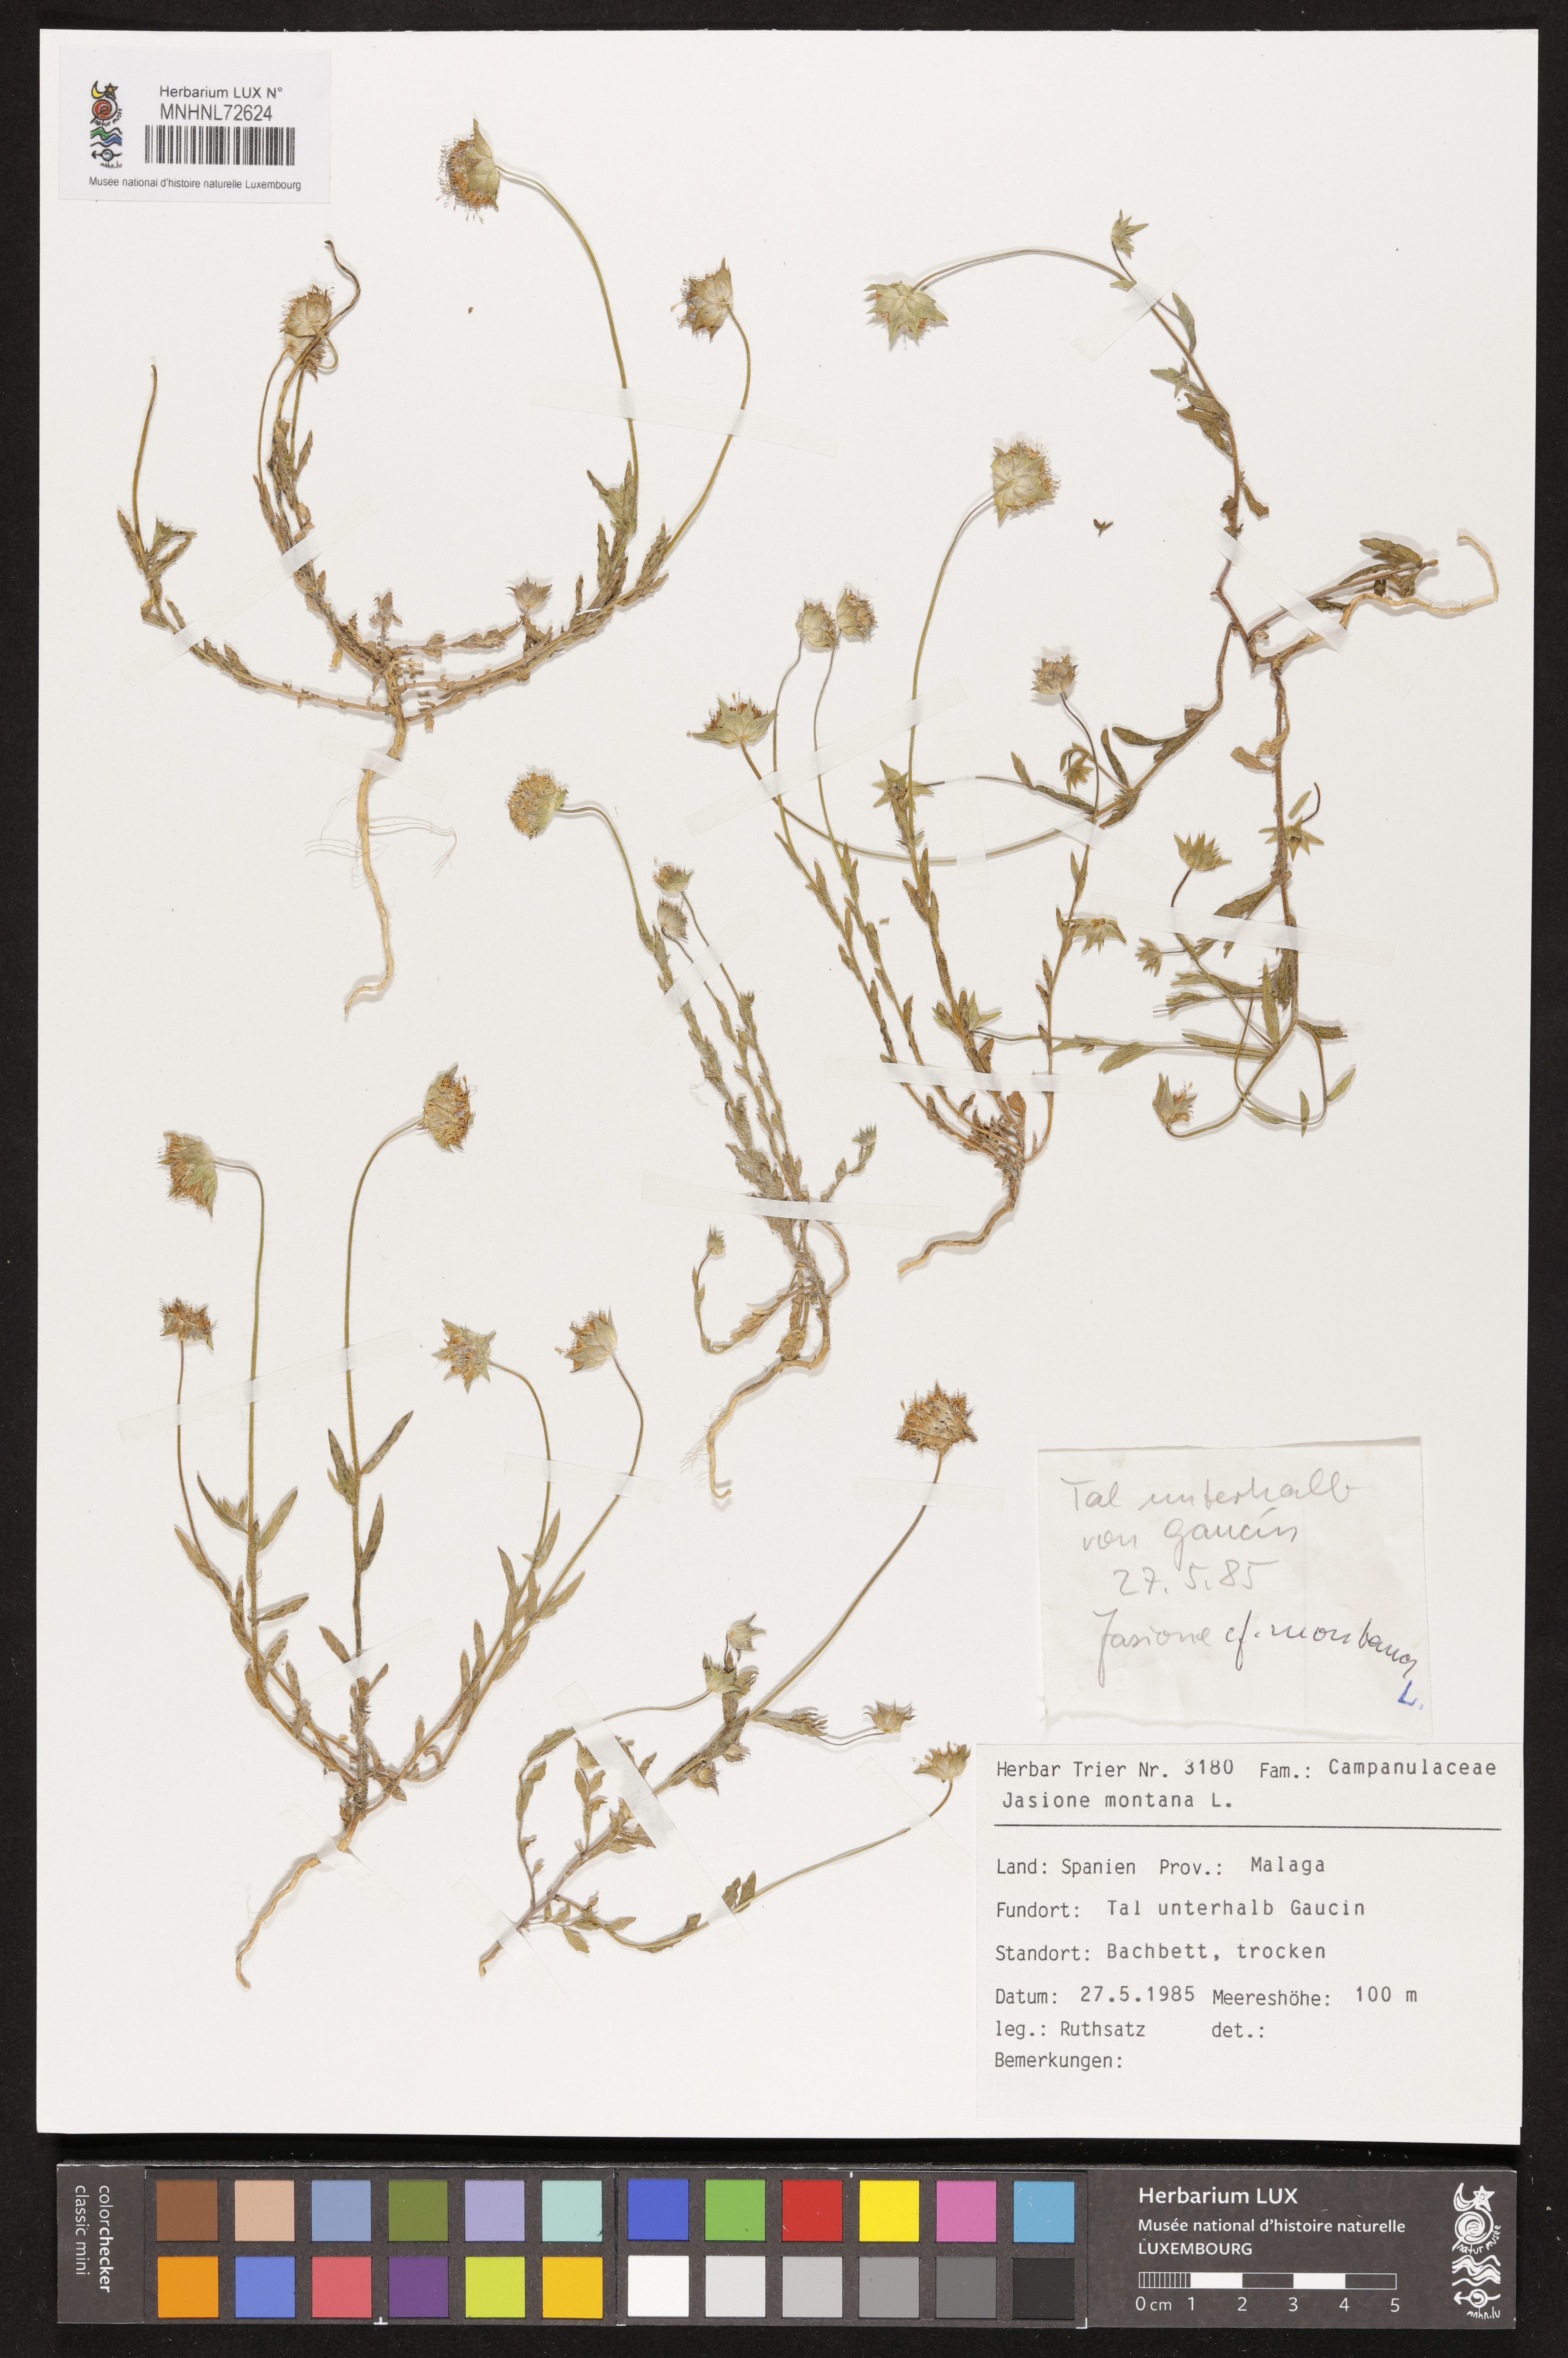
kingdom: Plantae
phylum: Tracheophyta
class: Magnoliopsida
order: Asterales
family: Campanulaceae
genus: Jasione
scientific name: Jasione montana
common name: Sheep's-bit
